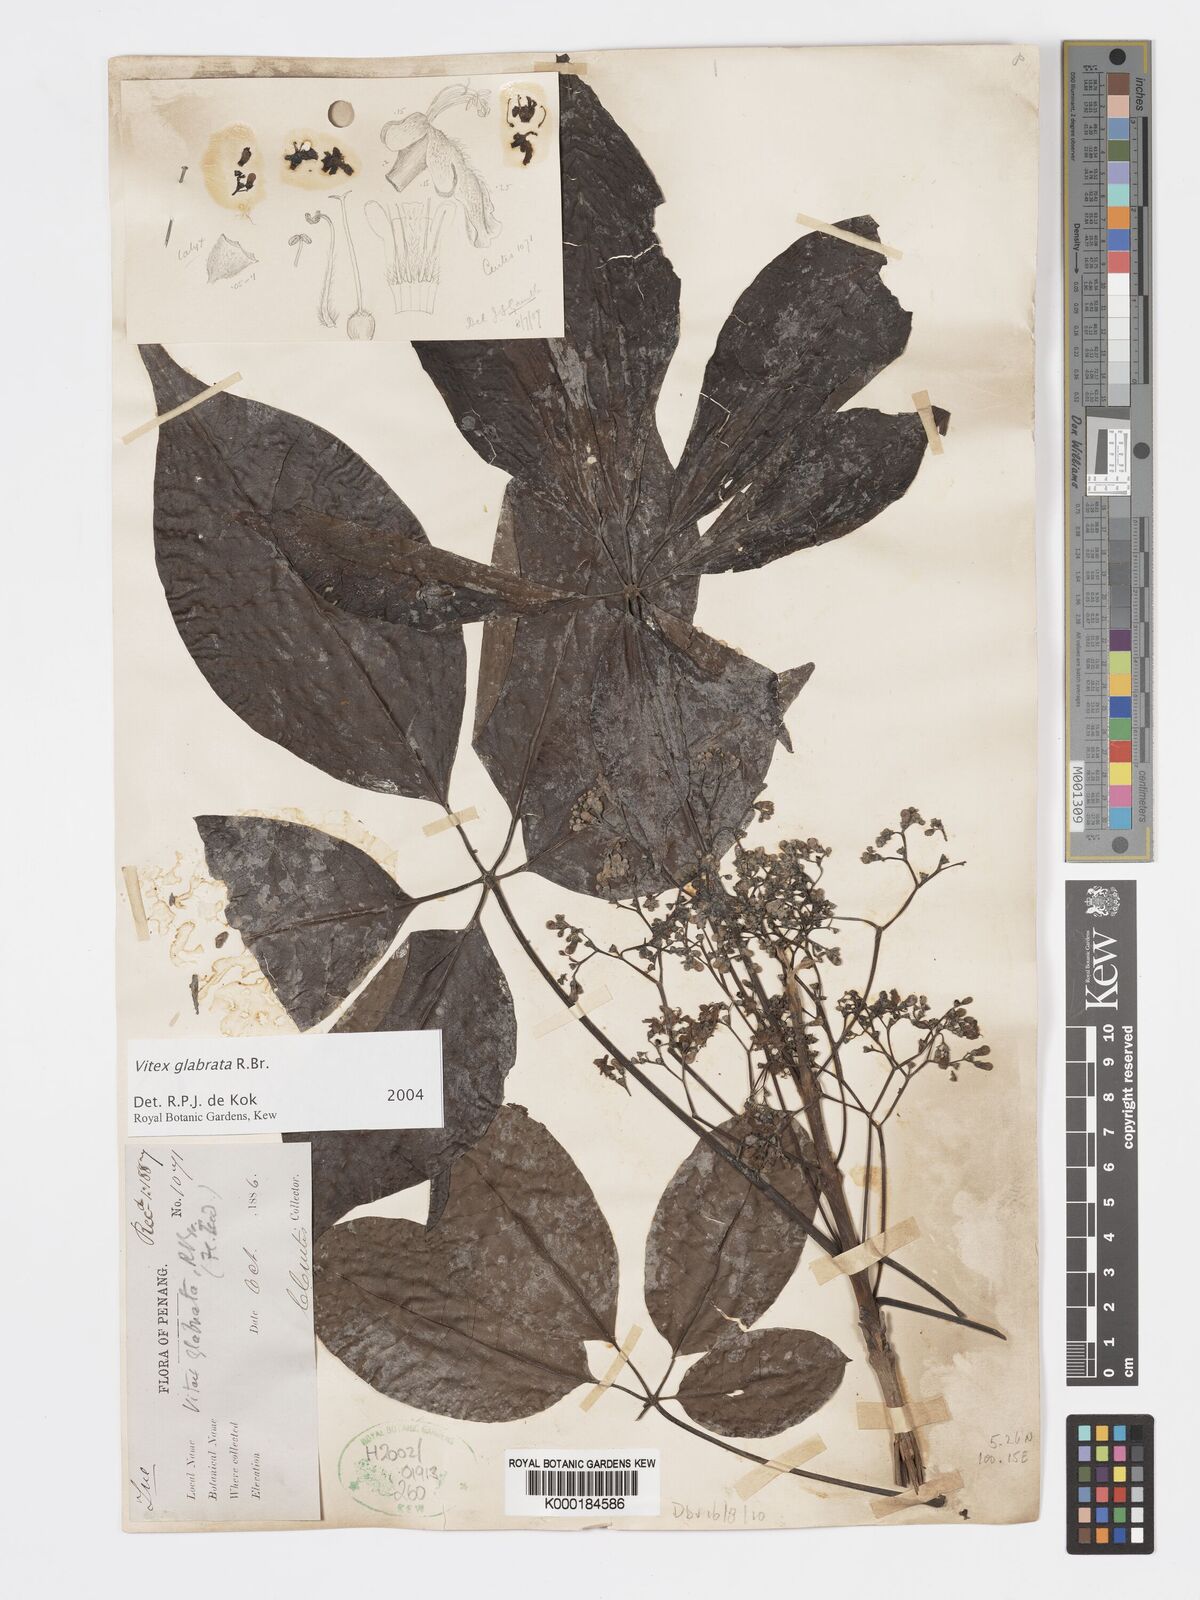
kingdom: Plantae
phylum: Tracheophyta
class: Magnoliopsida
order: Lamiales
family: Lamiaceae
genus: Vitex
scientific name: Vitex glabrata
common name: Smooth chastetree
